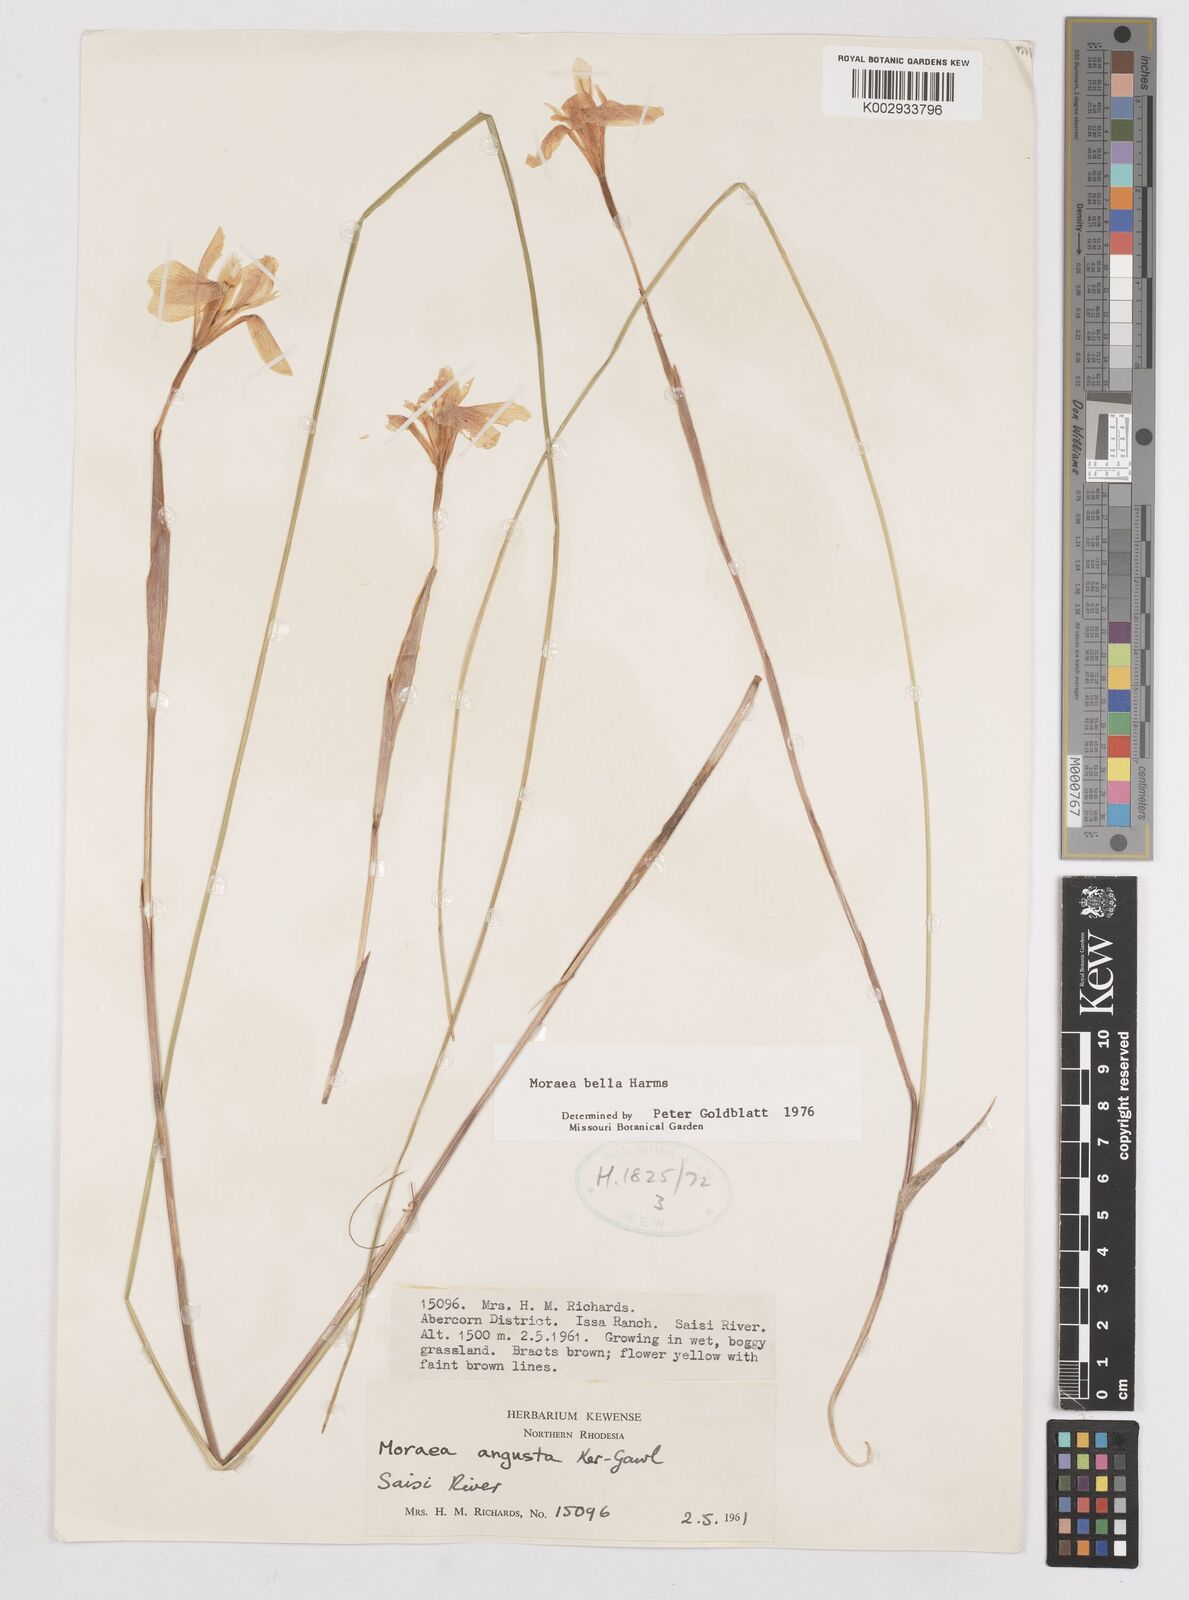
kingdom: Plantae
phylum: Tracheophyta
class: Liliopsida
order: Asparagales
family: Iridaceae
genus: Moraea
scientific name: Moraea bella
